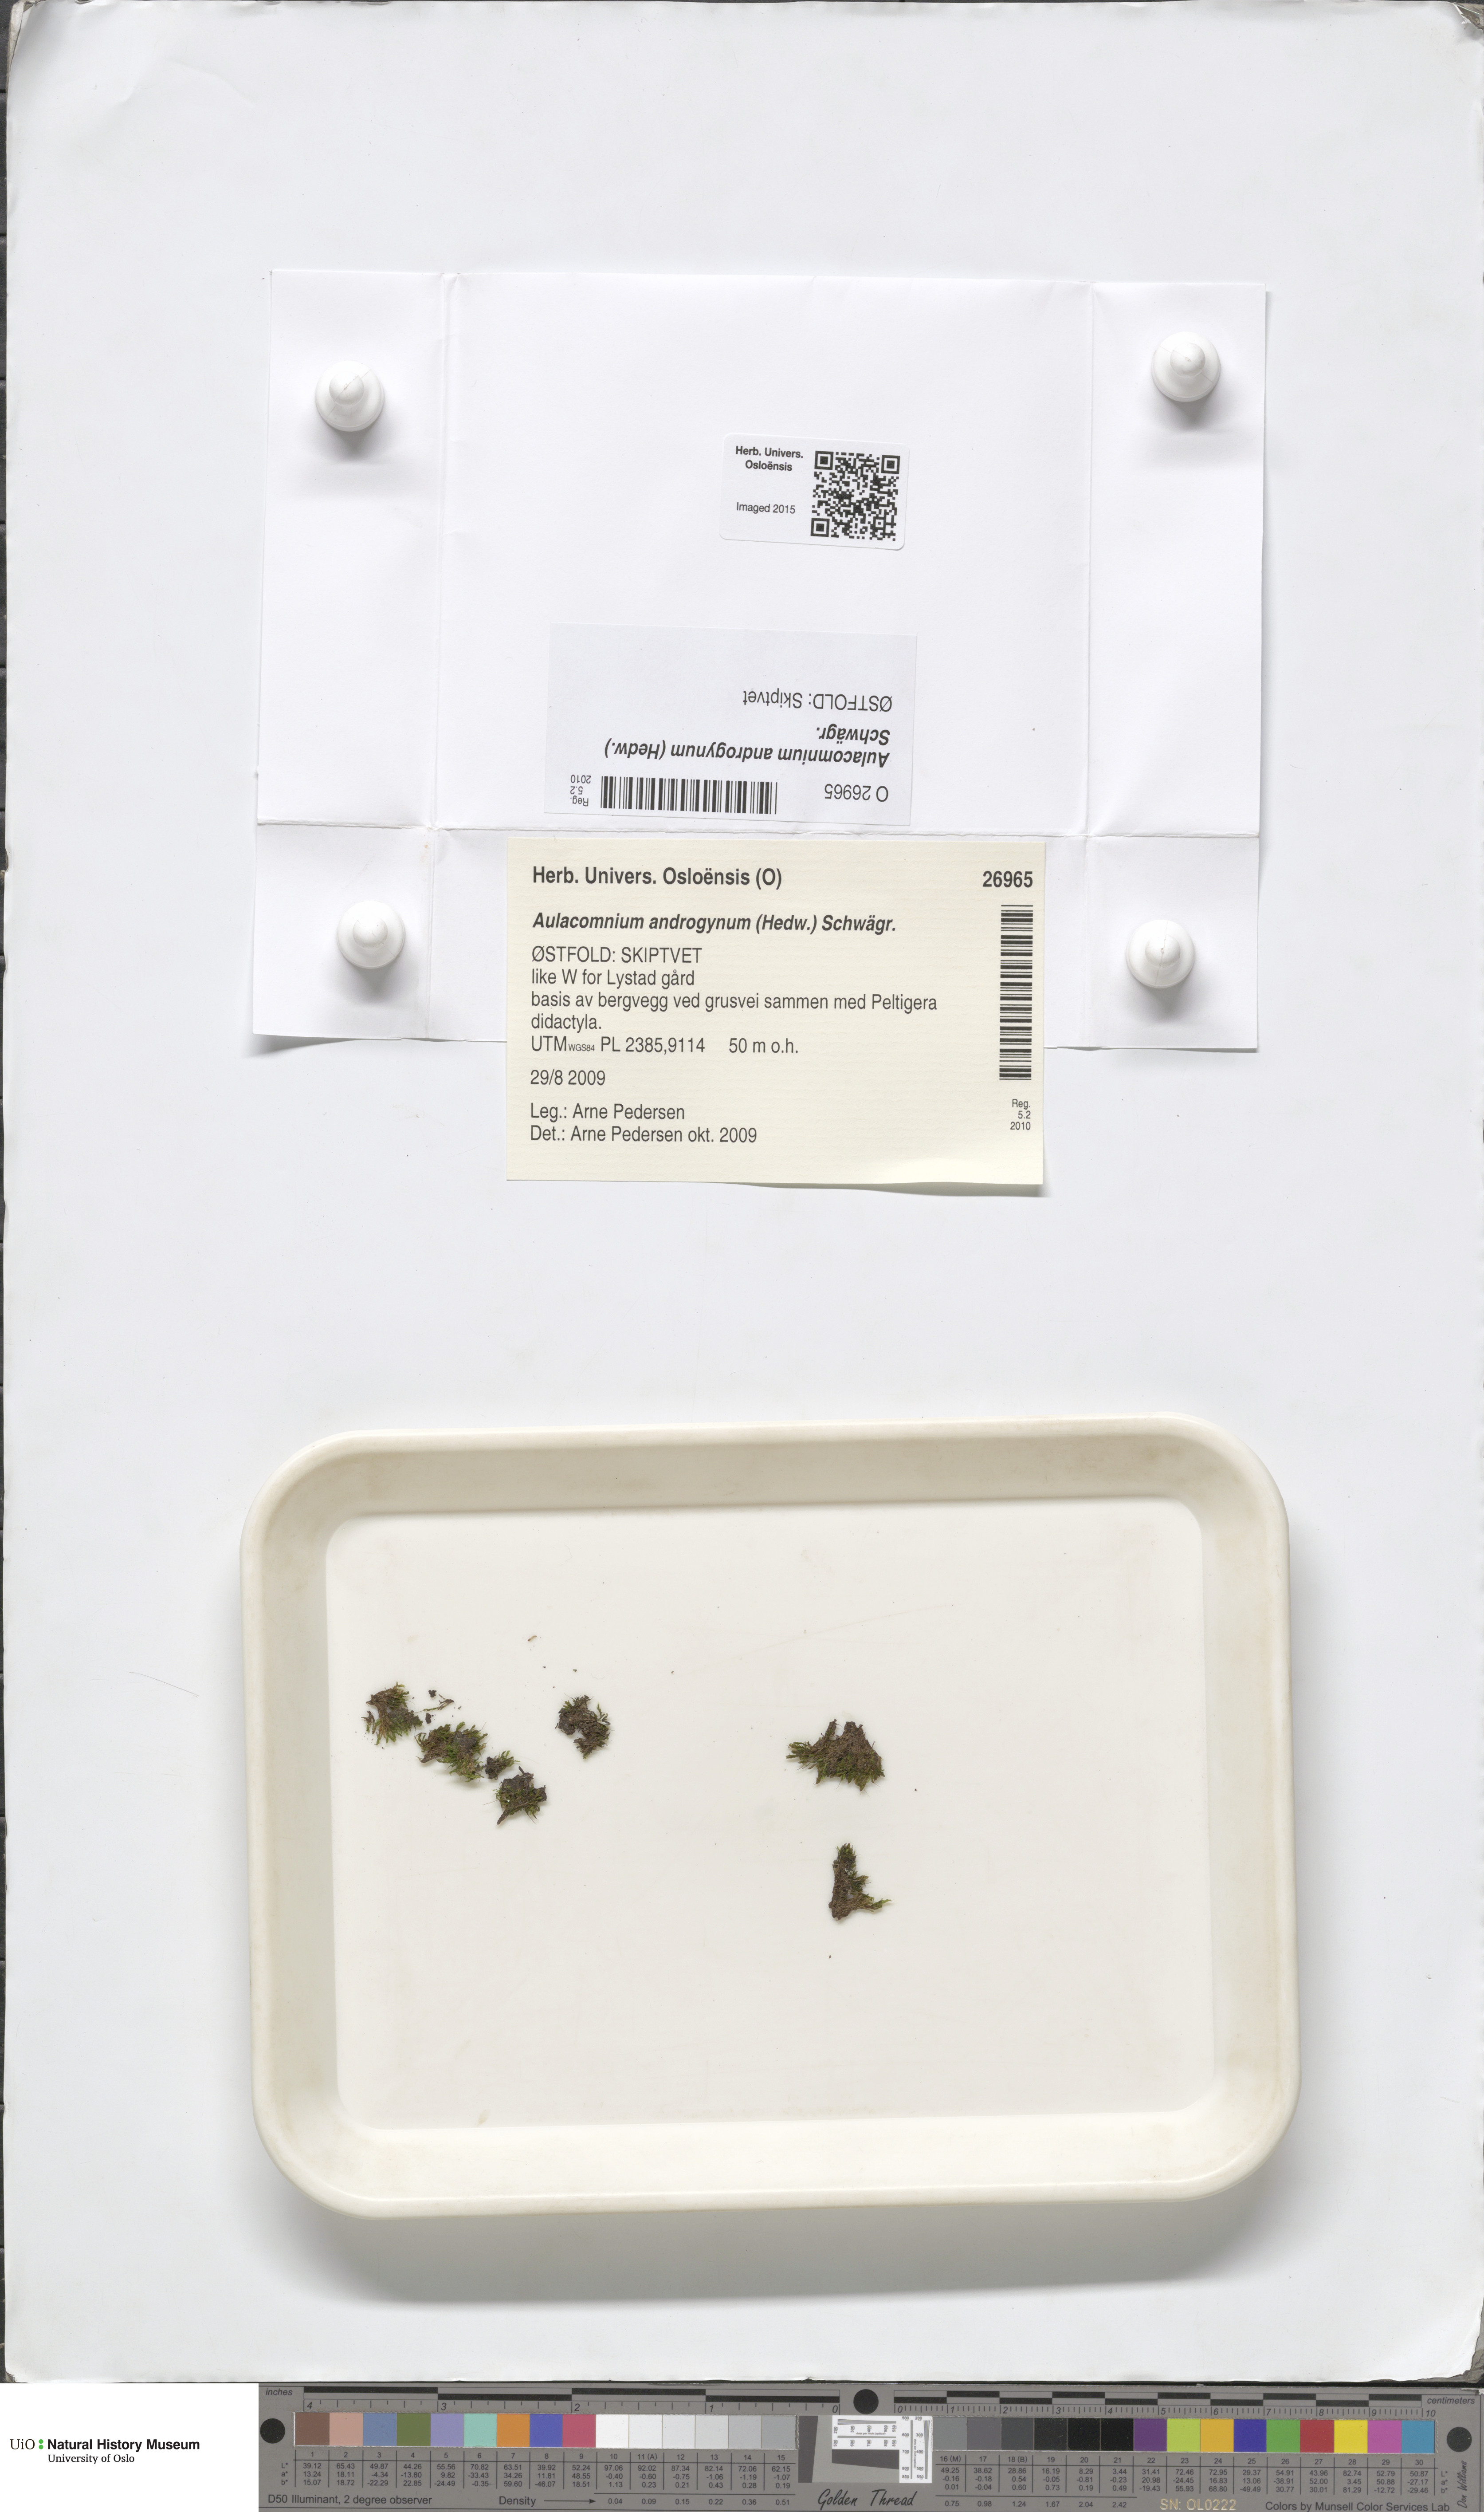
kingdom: Plantae
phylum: Bryophyta
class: Bryopsida
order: Aulacomniales
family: Aulacomniaceae
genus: Aulacomnium
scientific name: Aulacomnium androgynum
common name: Little groove moss
